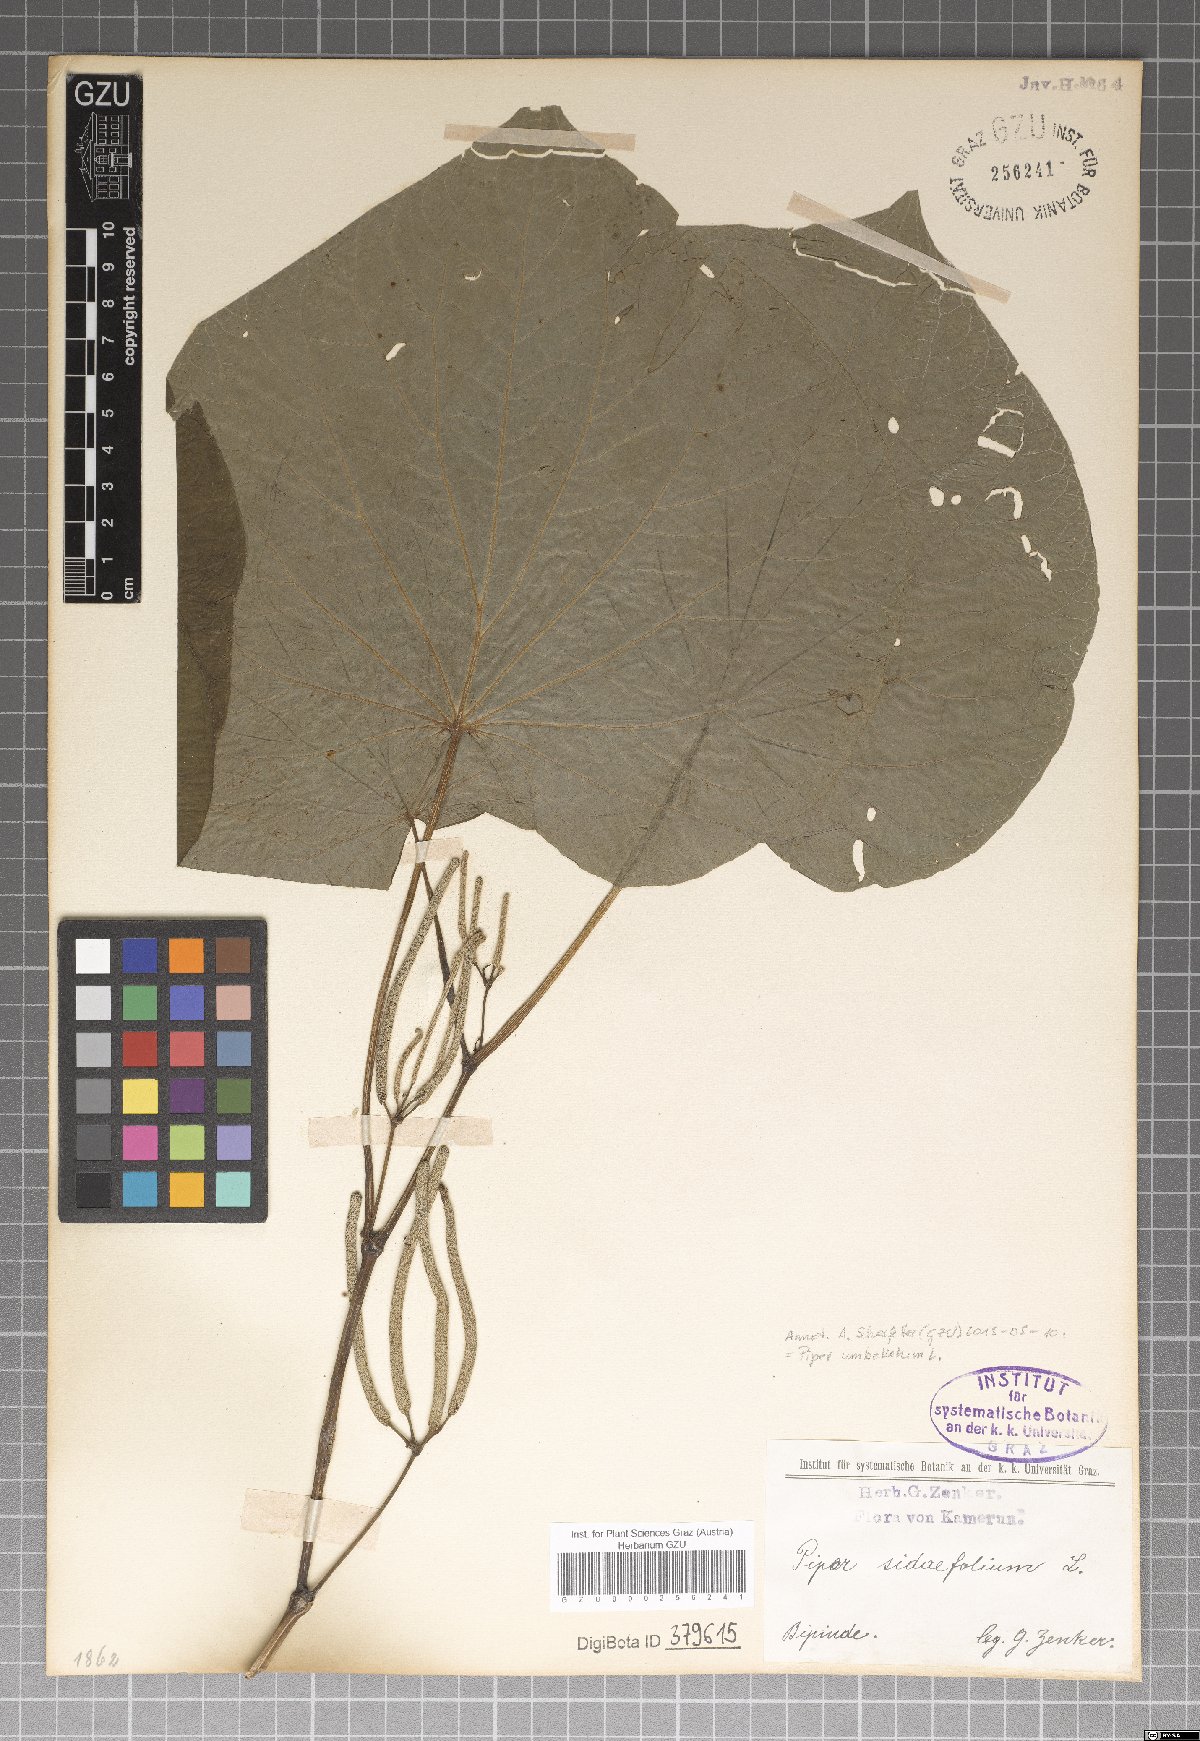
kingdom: Plantae
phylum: Tracheophyta
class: Magnoliopsida
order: Piperales
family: Piperaceae
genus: Piper
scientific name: Piper umbellatum
